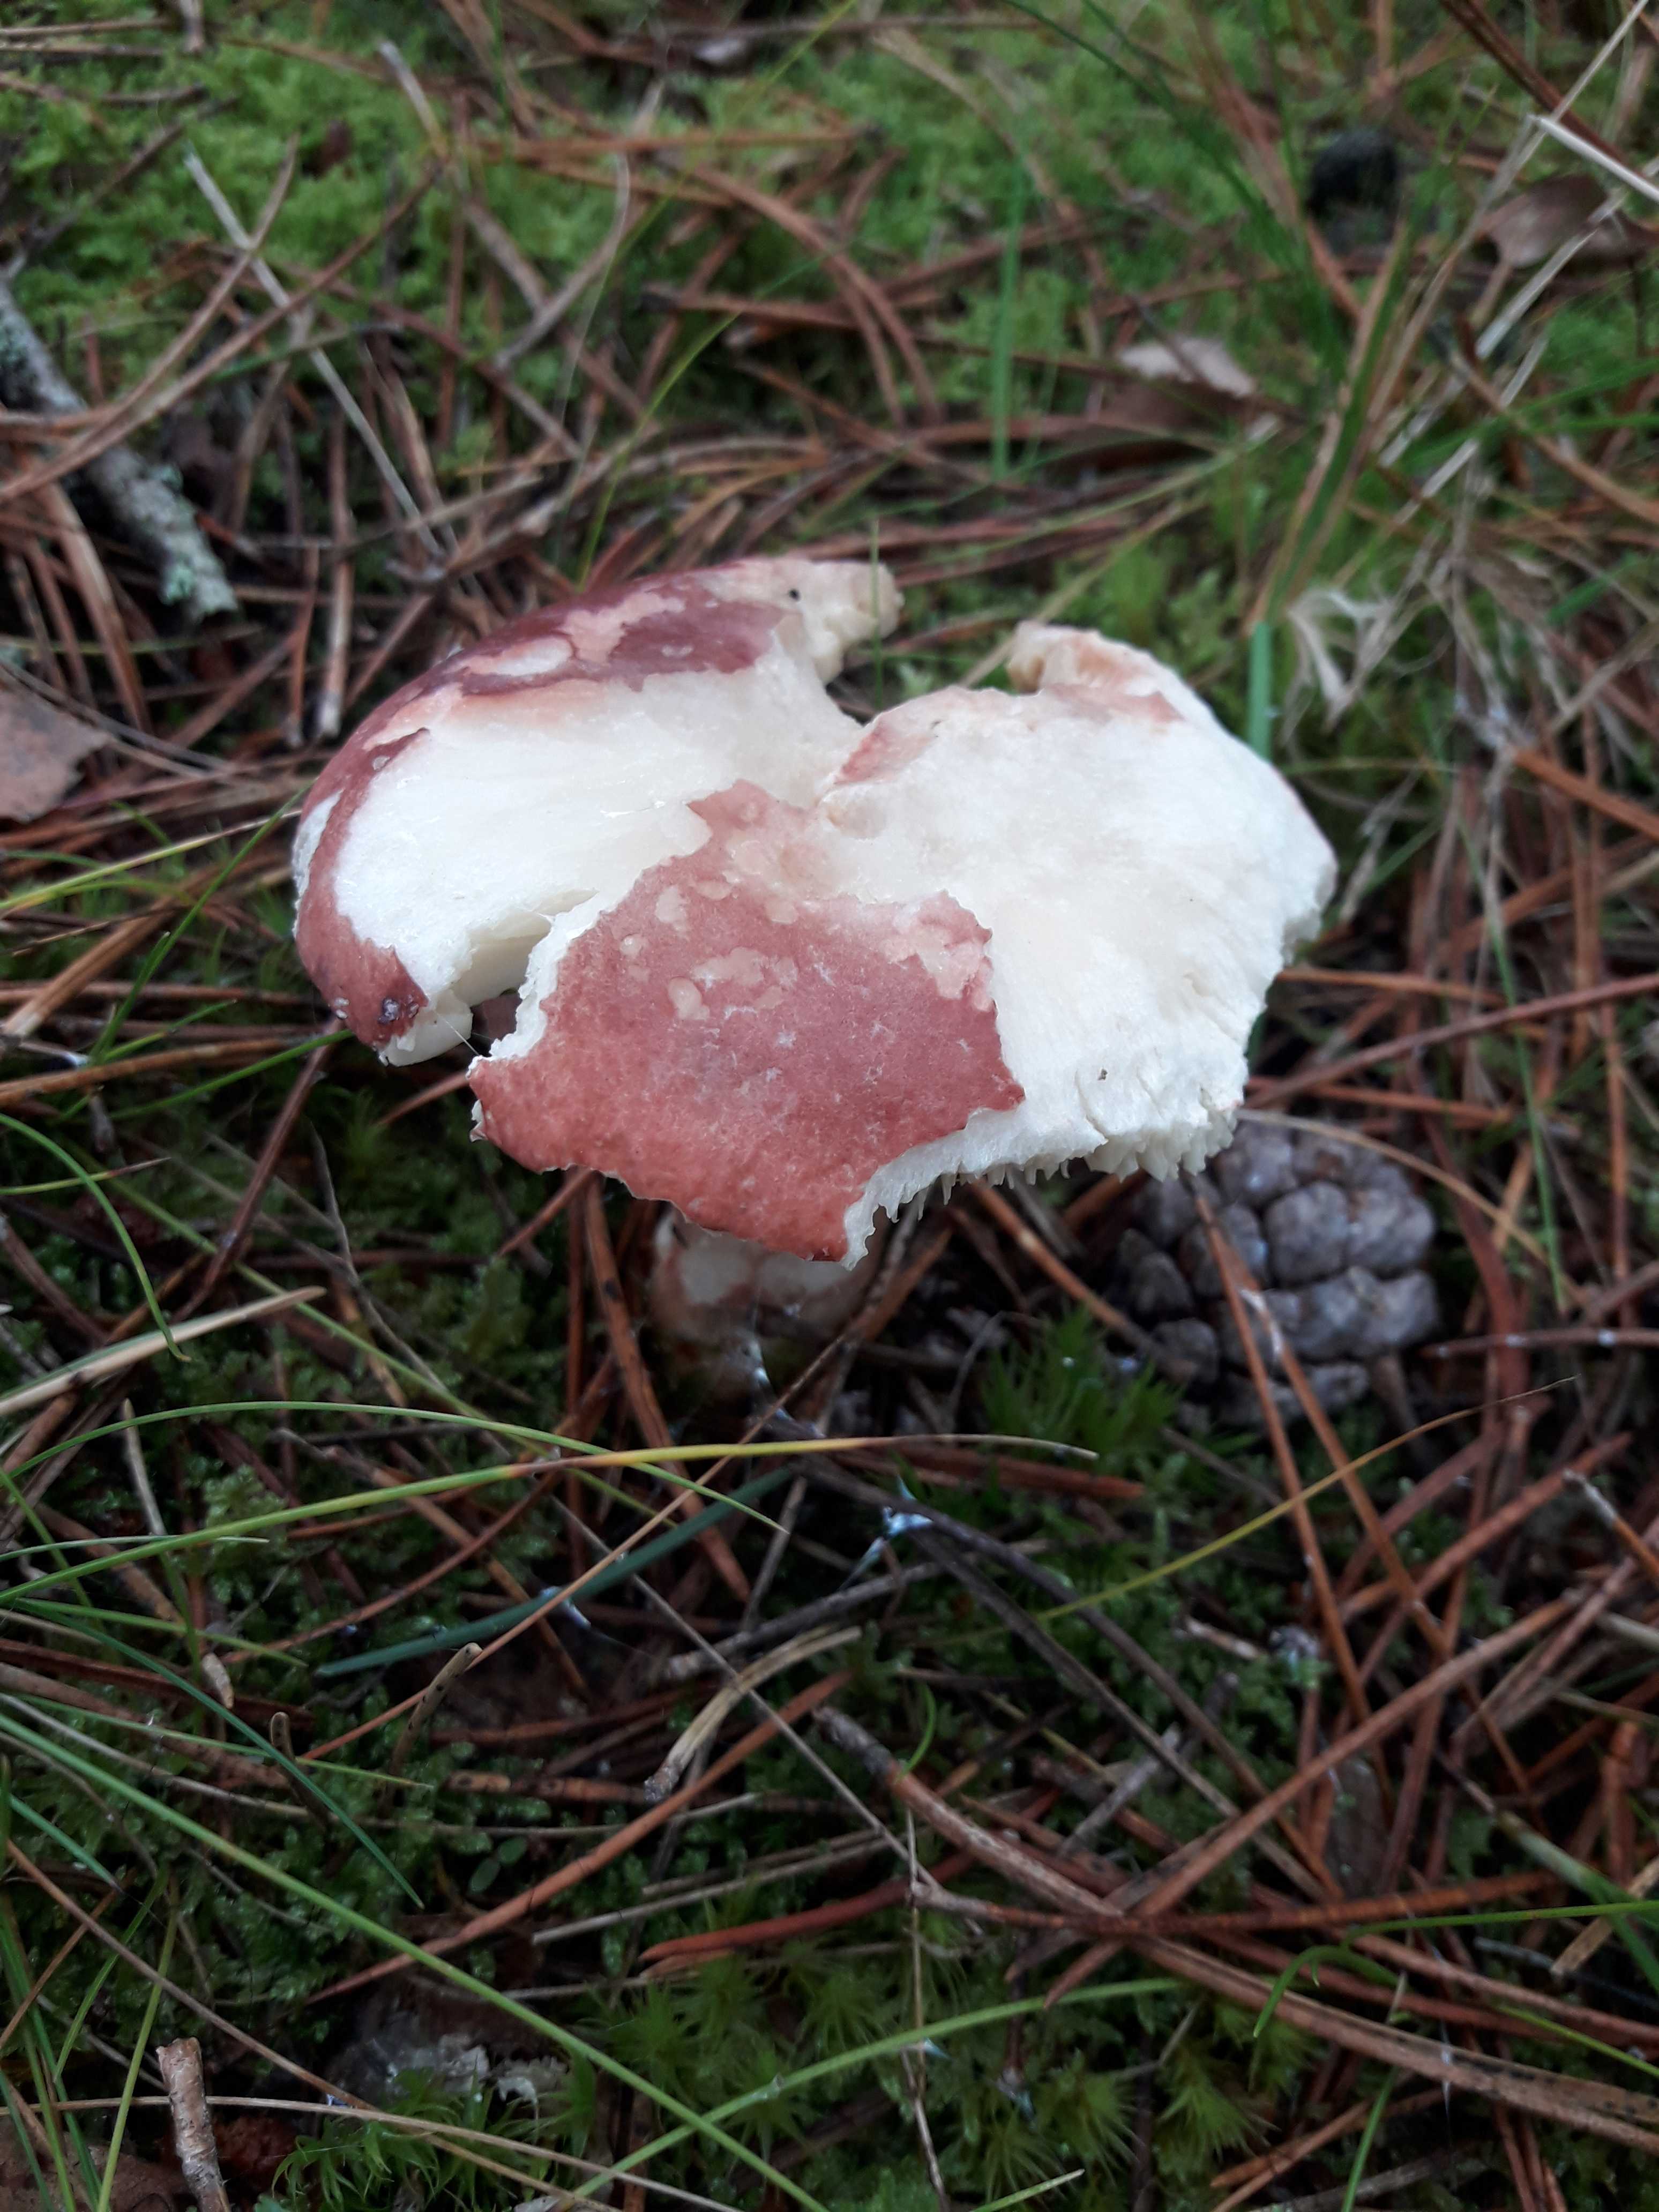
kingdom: Fungi
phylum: Basidiomycota
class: Agaricomycetes
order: Russulales
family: Russulaceae
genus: Russula
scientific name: Russula sanguinea
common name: blodrød skørhat
